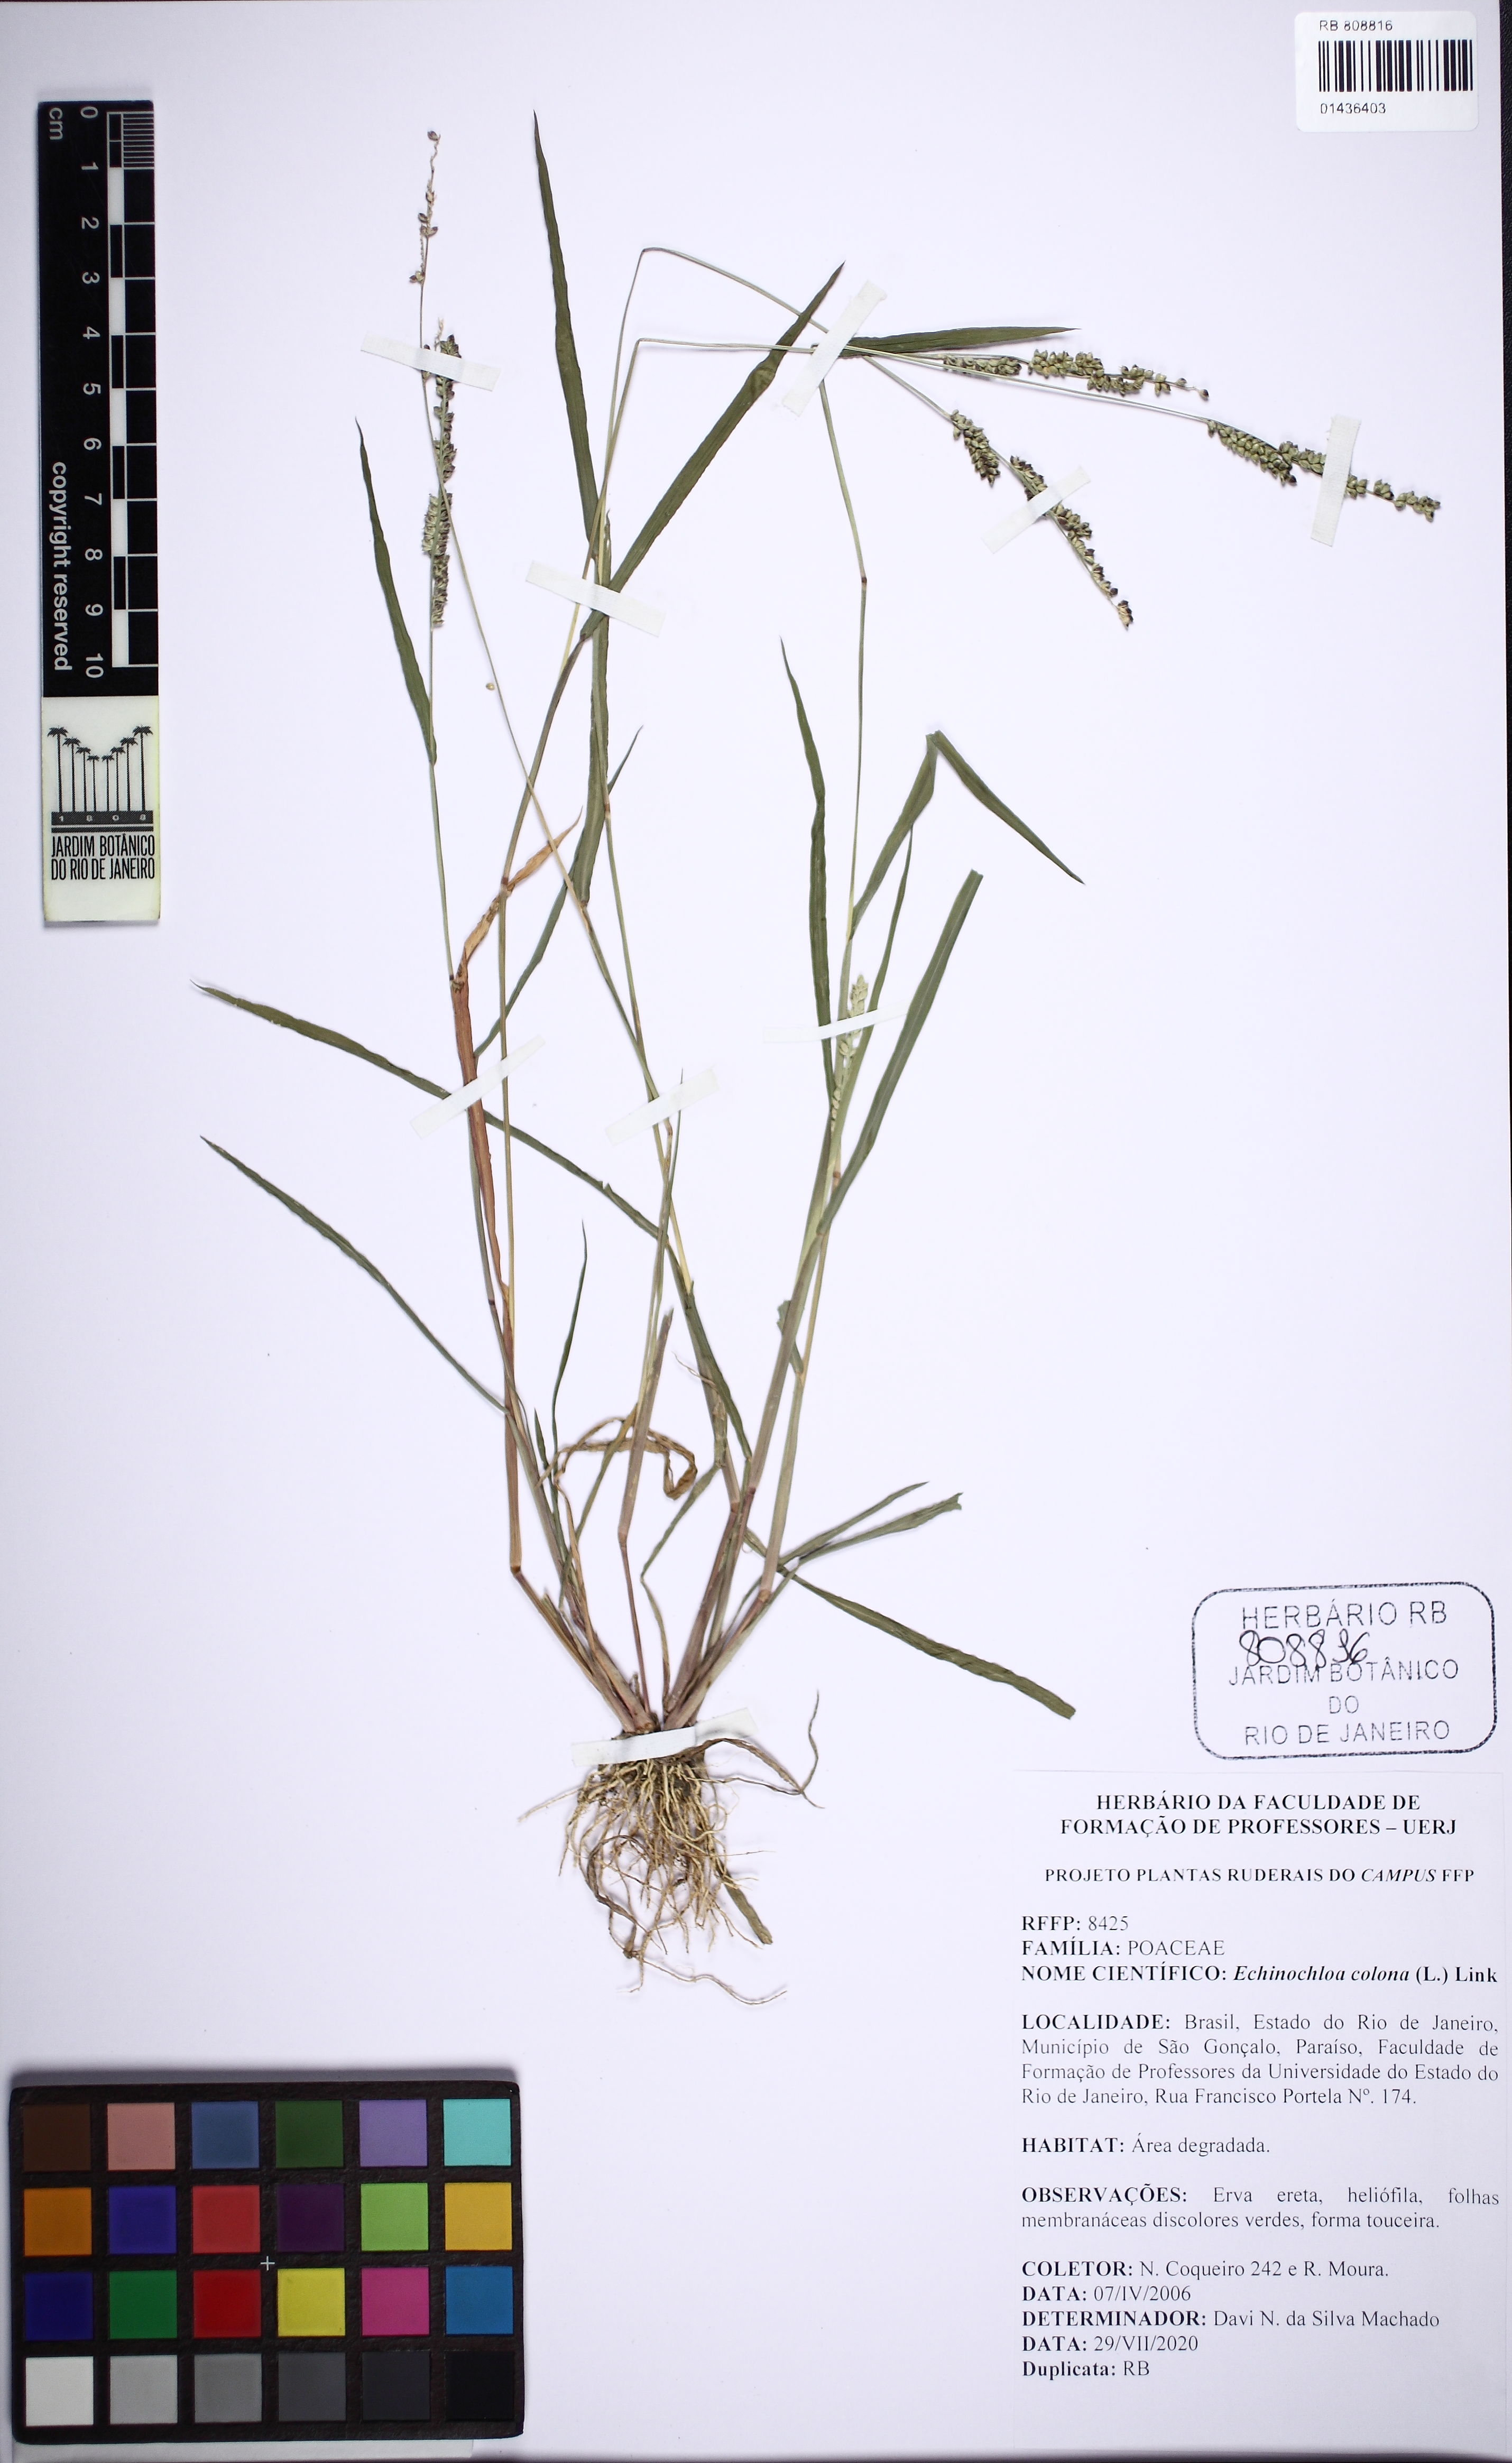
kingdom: Plantae
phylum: Tracheophyta
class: Liliopsida
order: Poales
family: Poaceae
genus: Echinochloa
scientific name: Echinochloa colonum
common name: Jungle rice
